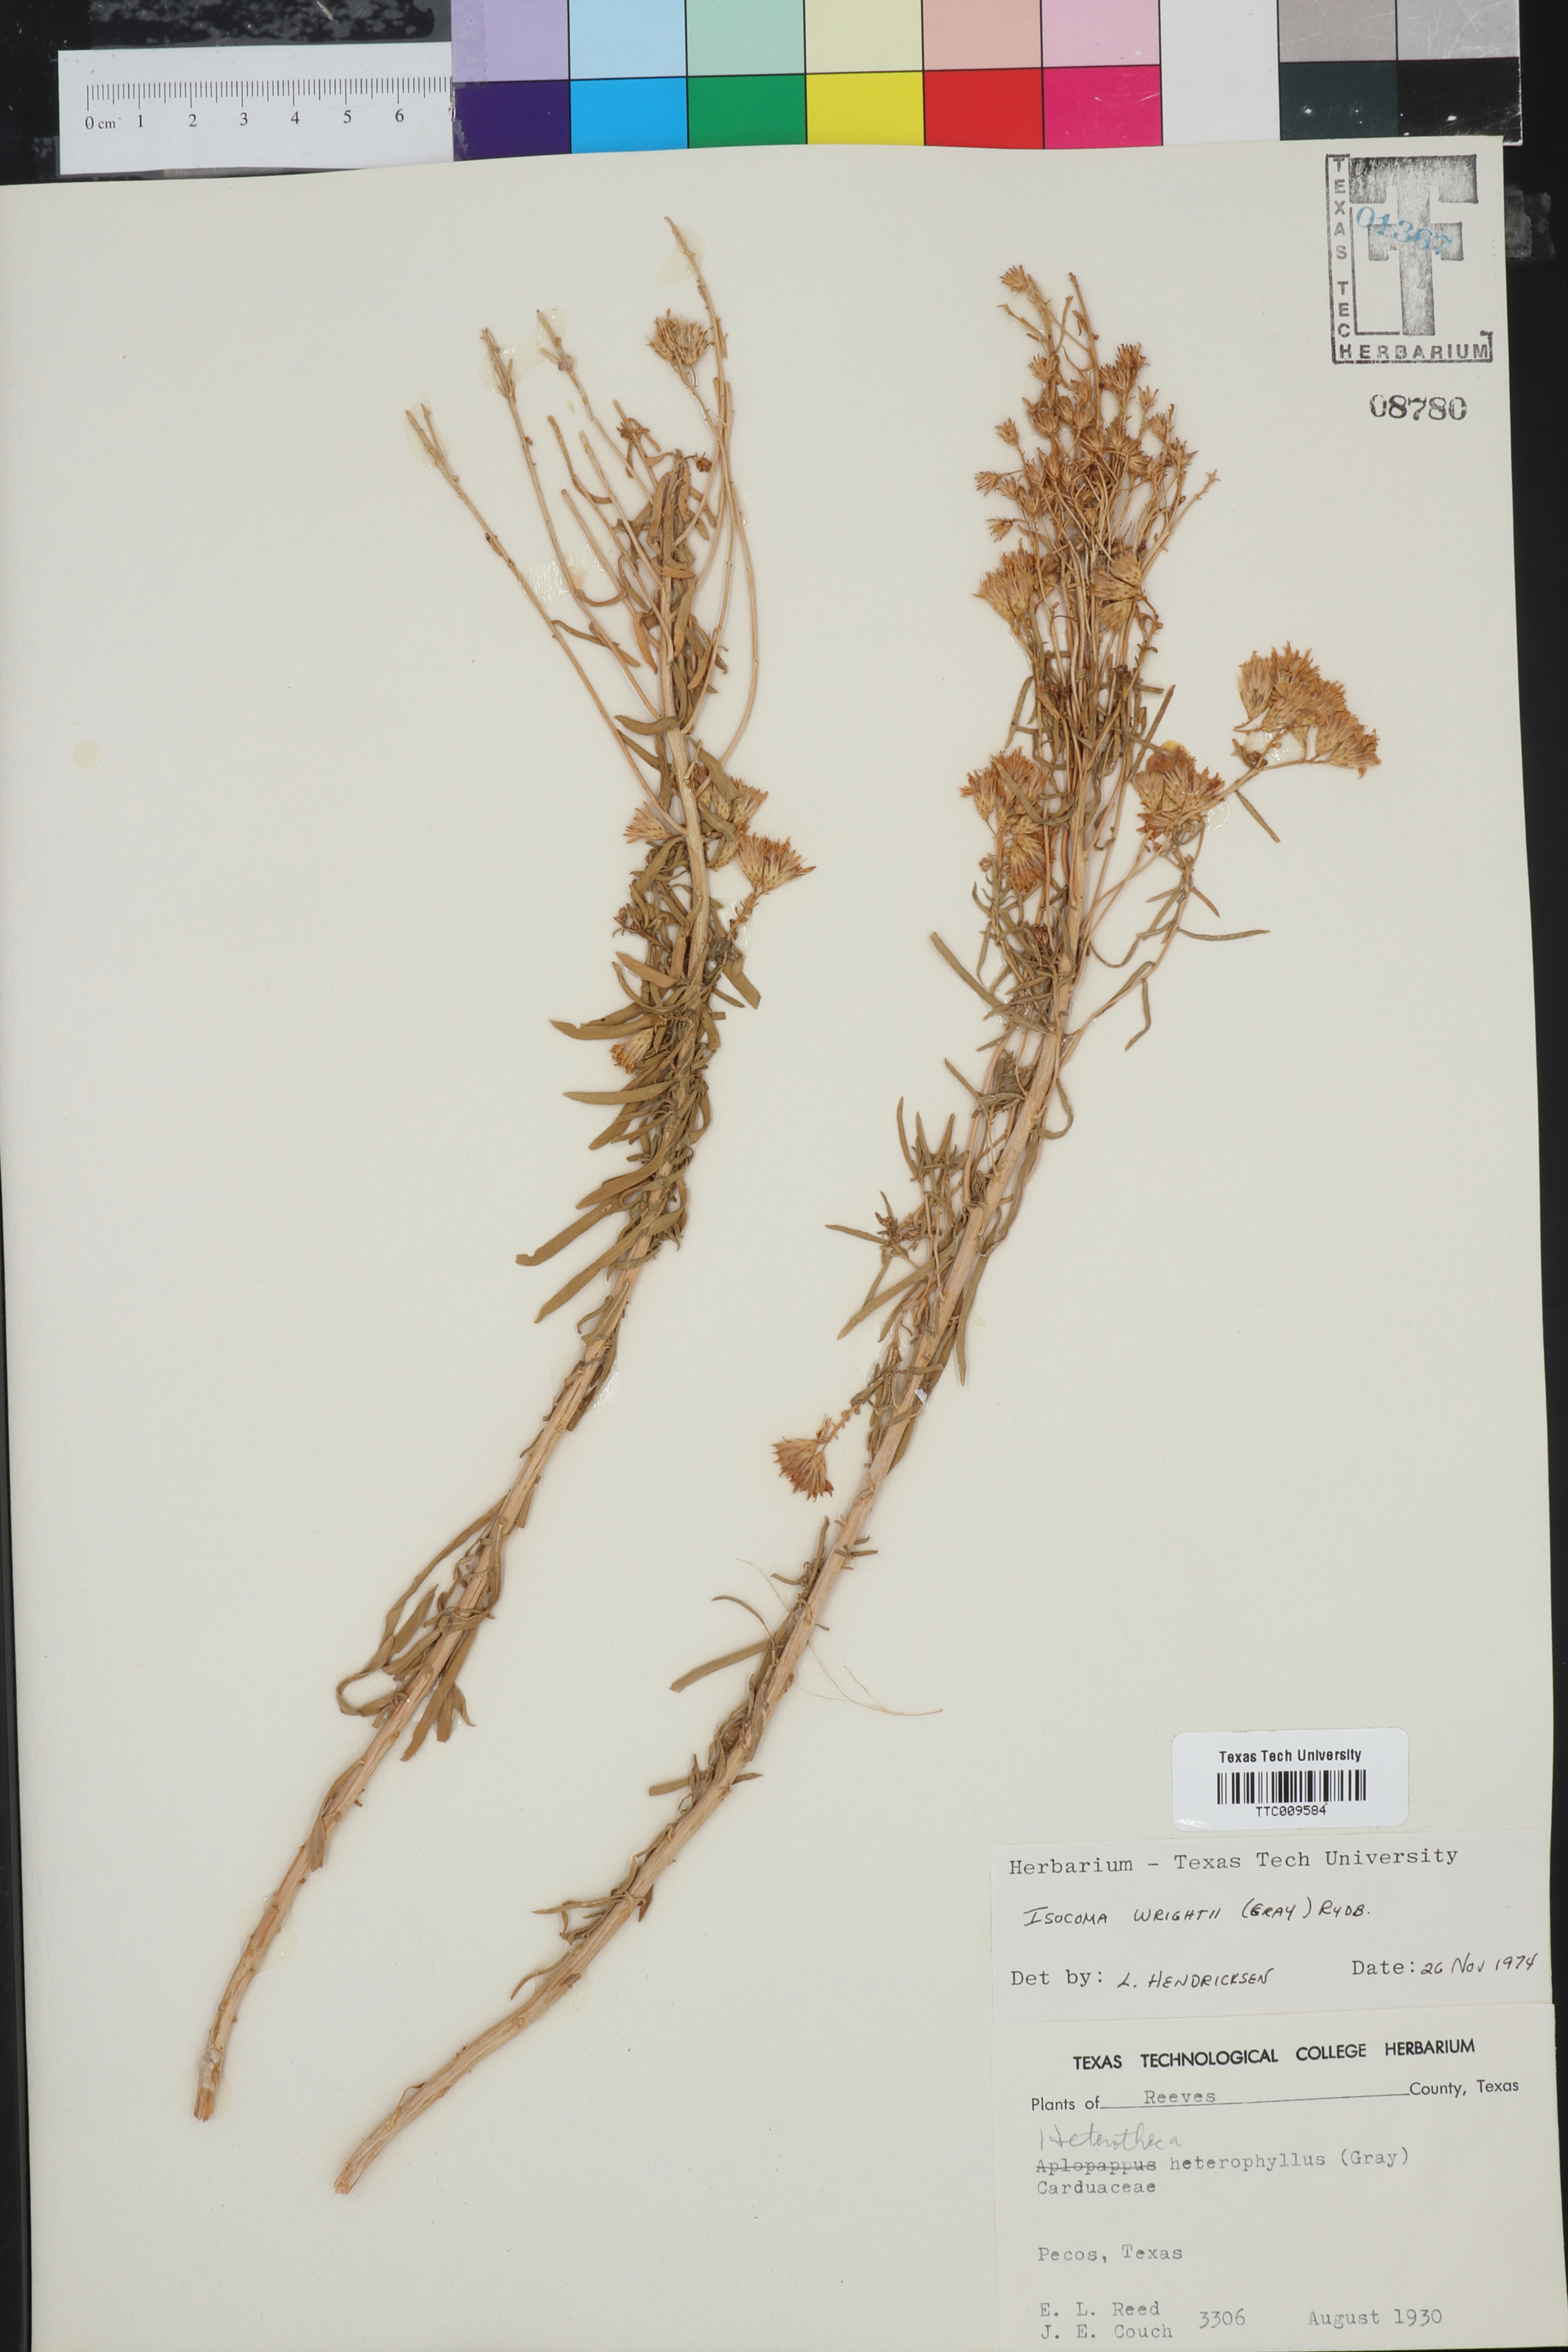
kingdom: Plantae
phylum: Tracheophyta
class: Magnoliopsida
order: Asterales
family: Asteraceae
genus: Isocoma
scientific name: Isocoma pluriflora
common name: Southern jimmyweed
